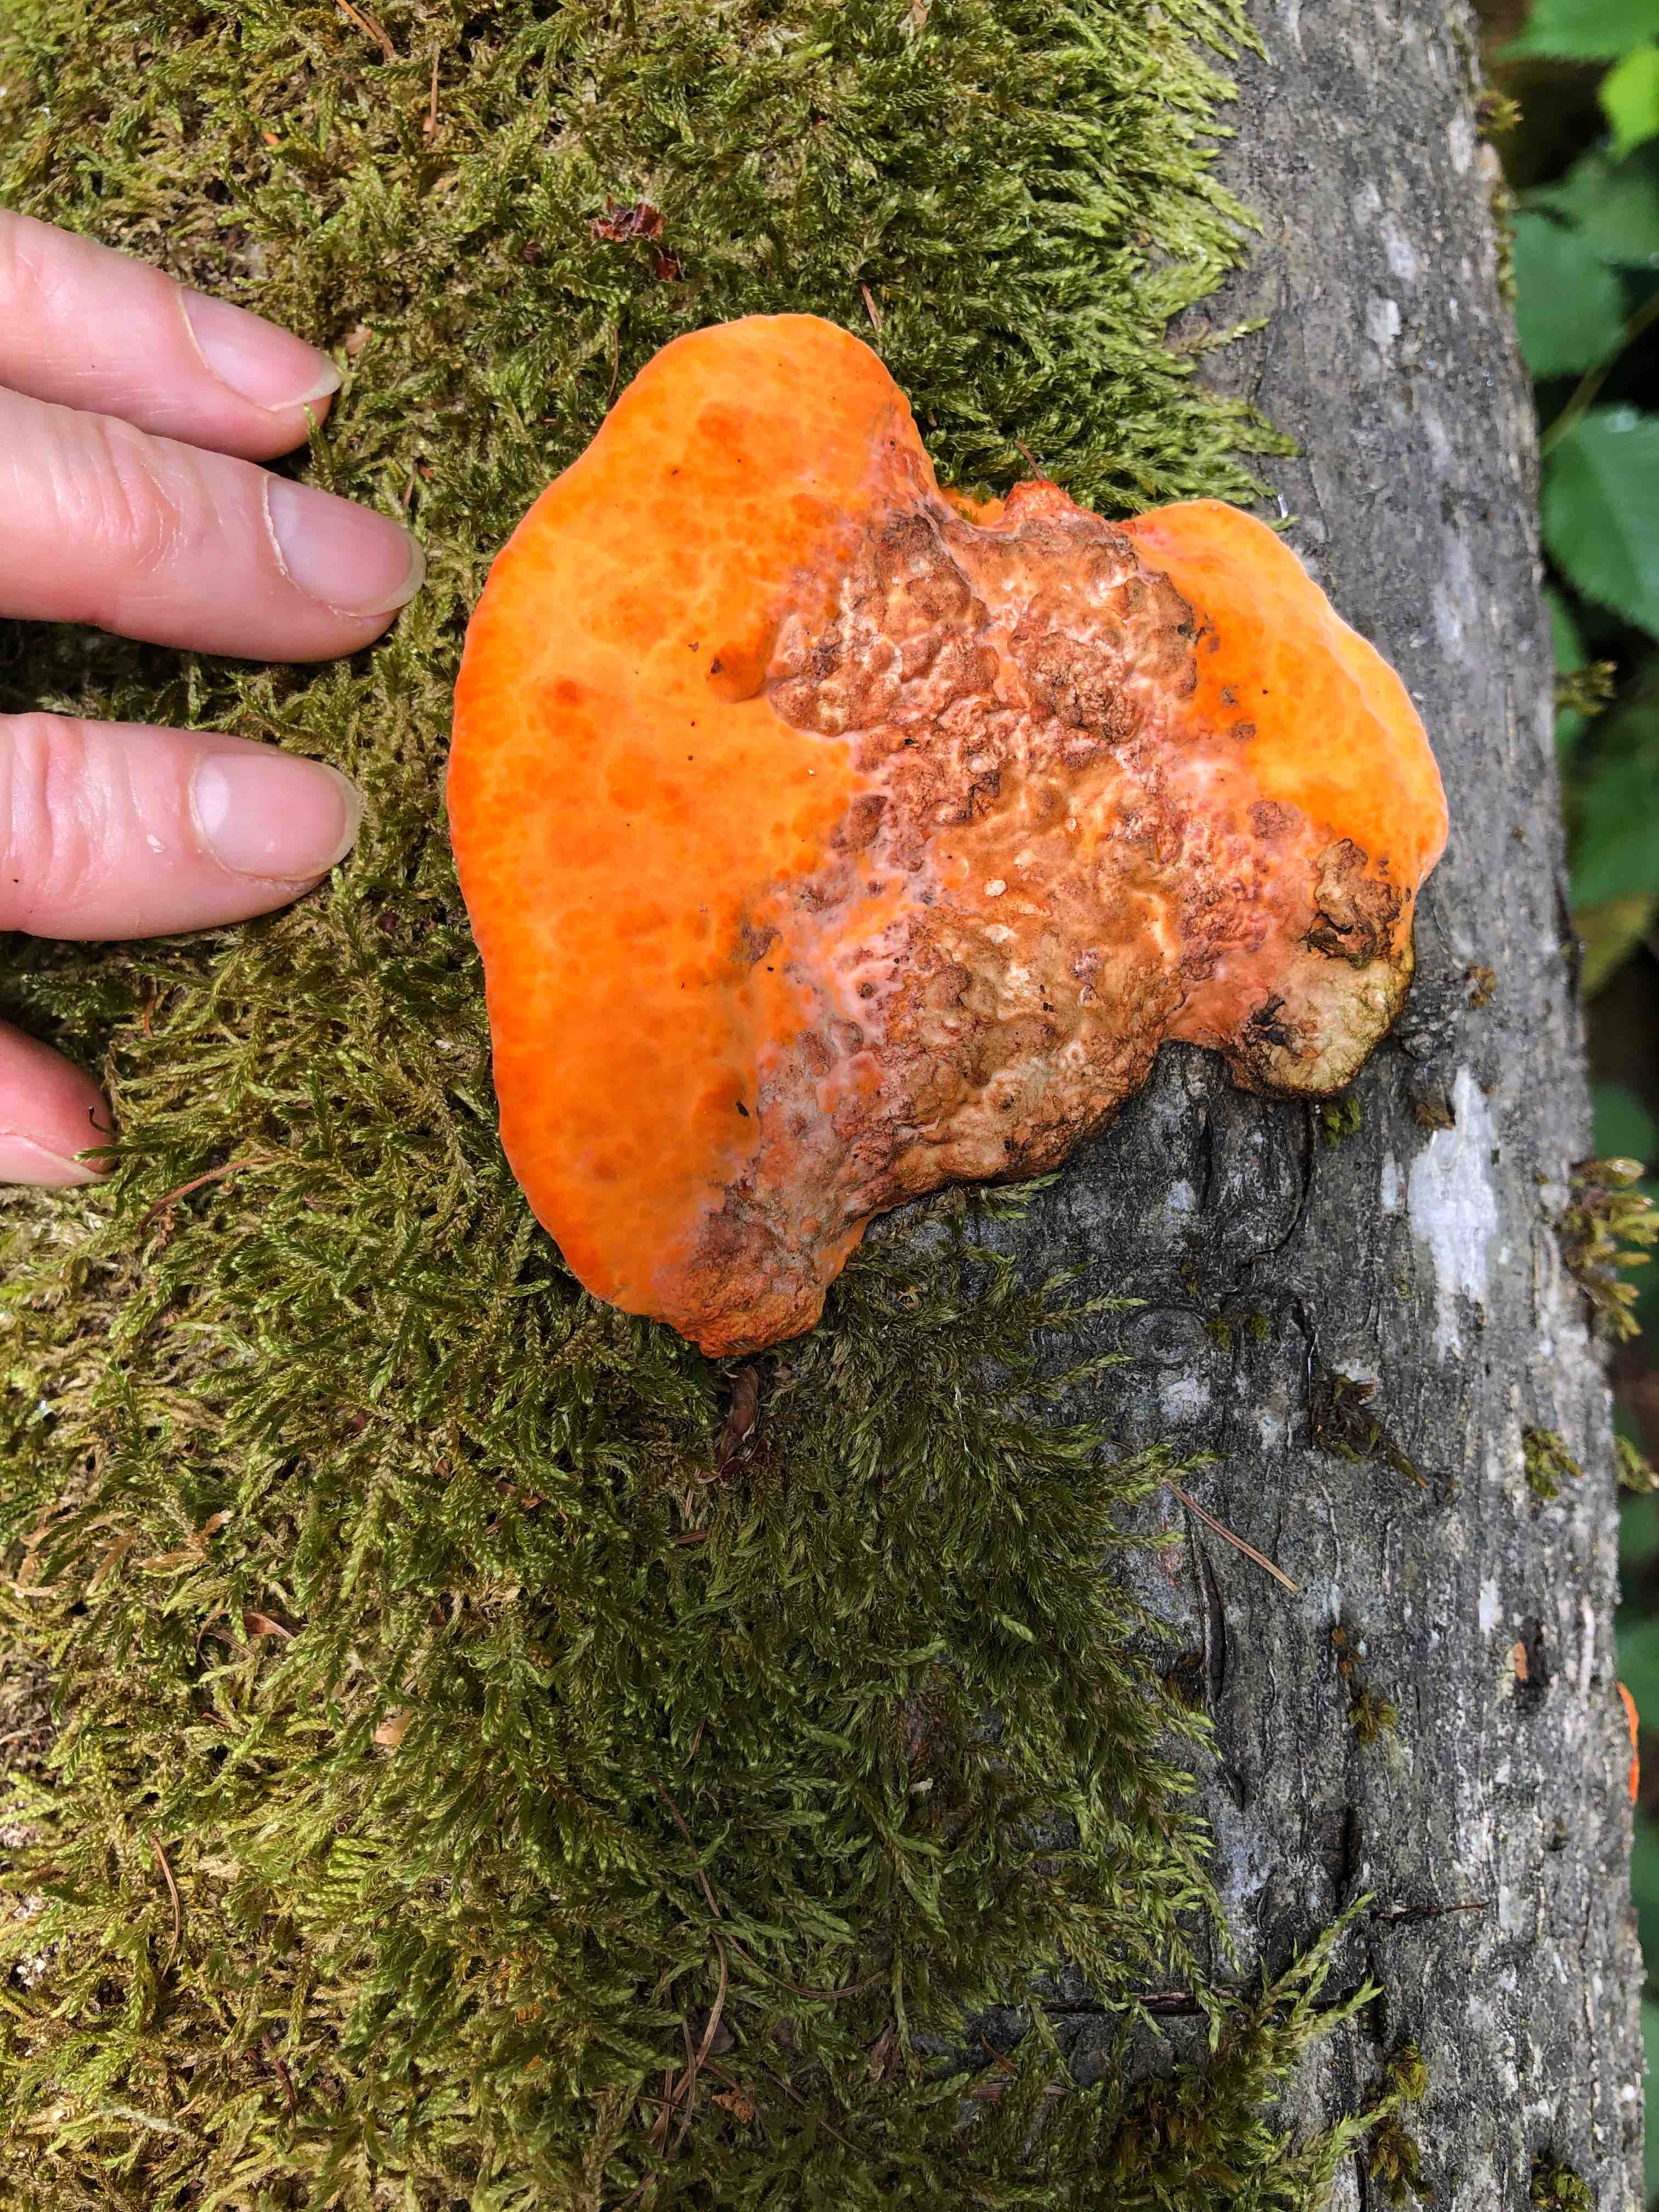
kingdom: Fungi
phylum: Basidiomycota
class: Agaricomycetes
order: Polyporales
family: Polyporaceae
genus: Trametes
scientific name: Trametes cinnabarina
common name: cinnoberporesvamp
